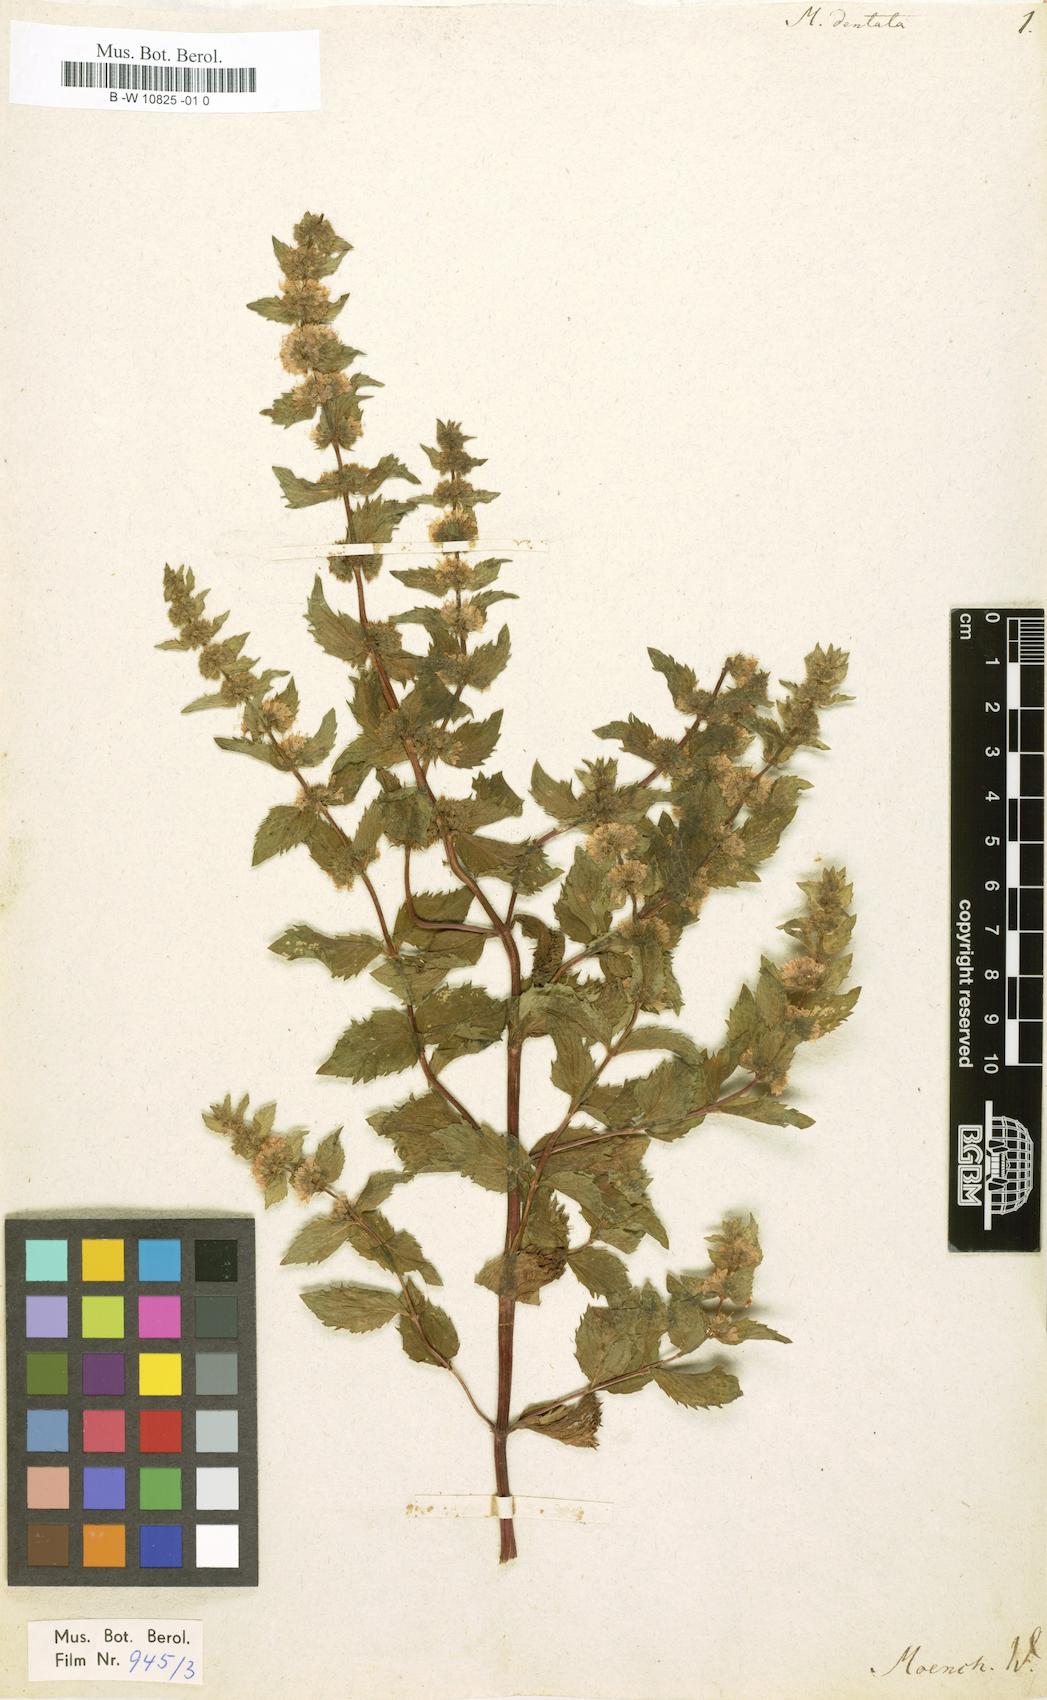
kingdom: Plantae
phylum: Tracheophyta
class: Magnoliopsida
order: Lamiales
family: Lamiaceae
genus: Mentha
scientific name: Mentha dentata
